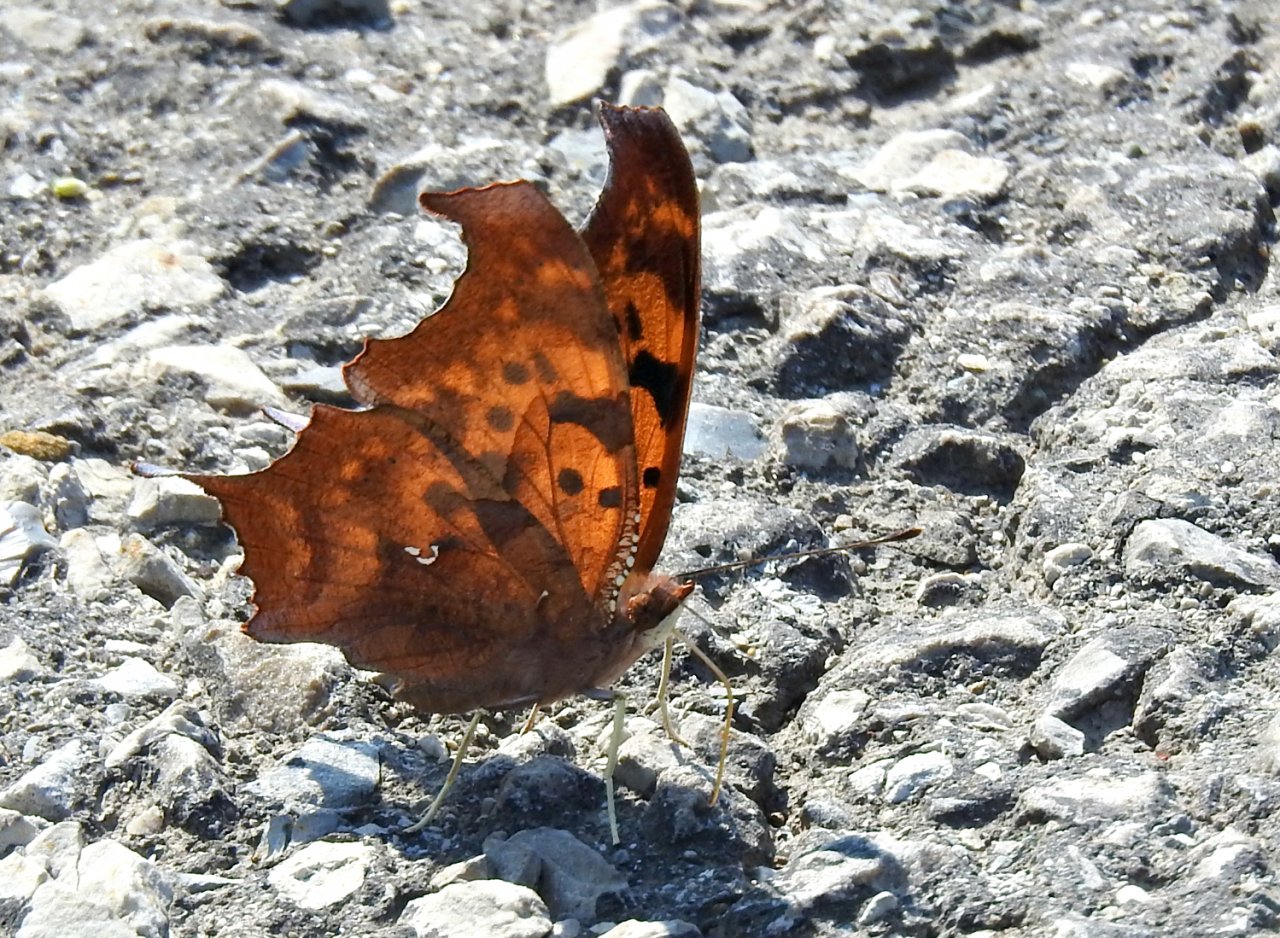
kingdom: Animalia
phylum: Arthropoda
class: Insecta
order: Lepidoptera
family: Nymphalidae
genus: Polygonia
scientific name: Polygonia interrogationis
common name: Question Mark
